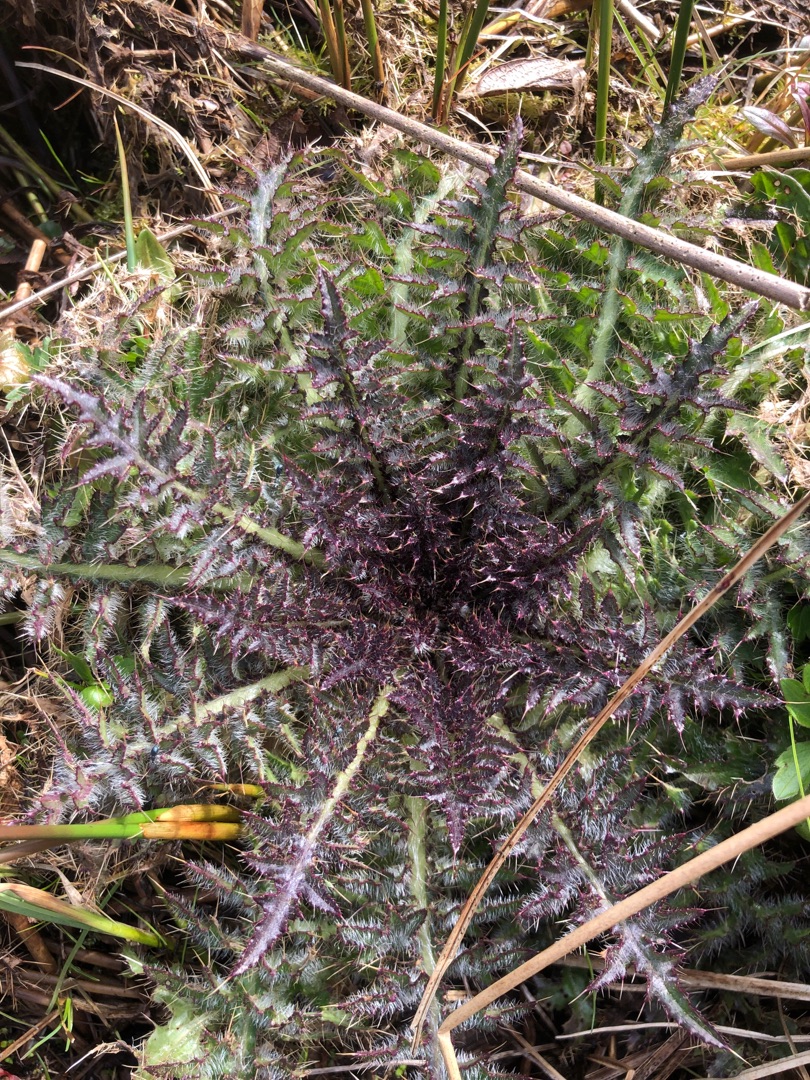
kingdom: Plantae
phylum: Tracheophyta
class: Magnoliopsida
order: Asterales
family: Asteraceae
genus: Cirsium
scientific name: Cirsium palustre
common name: Kær-tidsel
